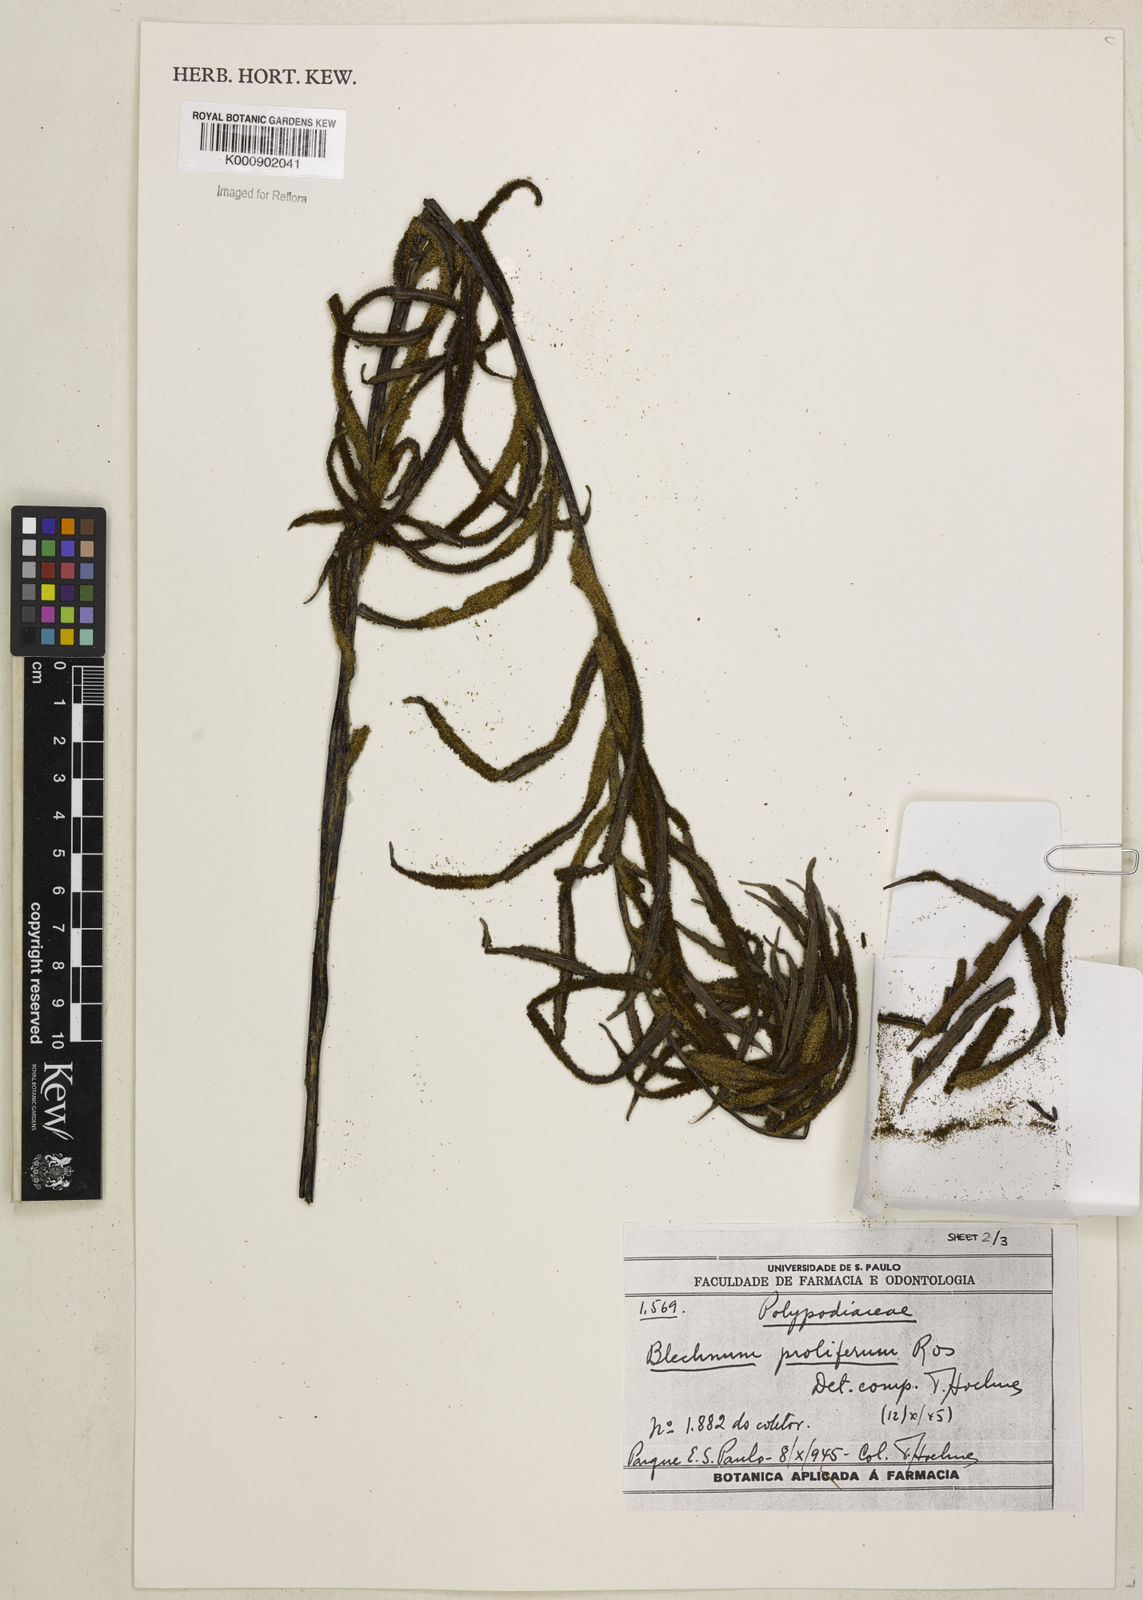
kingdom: Plantae
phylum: Tracheophyta
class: Polypodiopsida
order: Polypodiales
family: Blechnaceae
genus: Parablechnum
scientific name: Parablechnum proliferum
